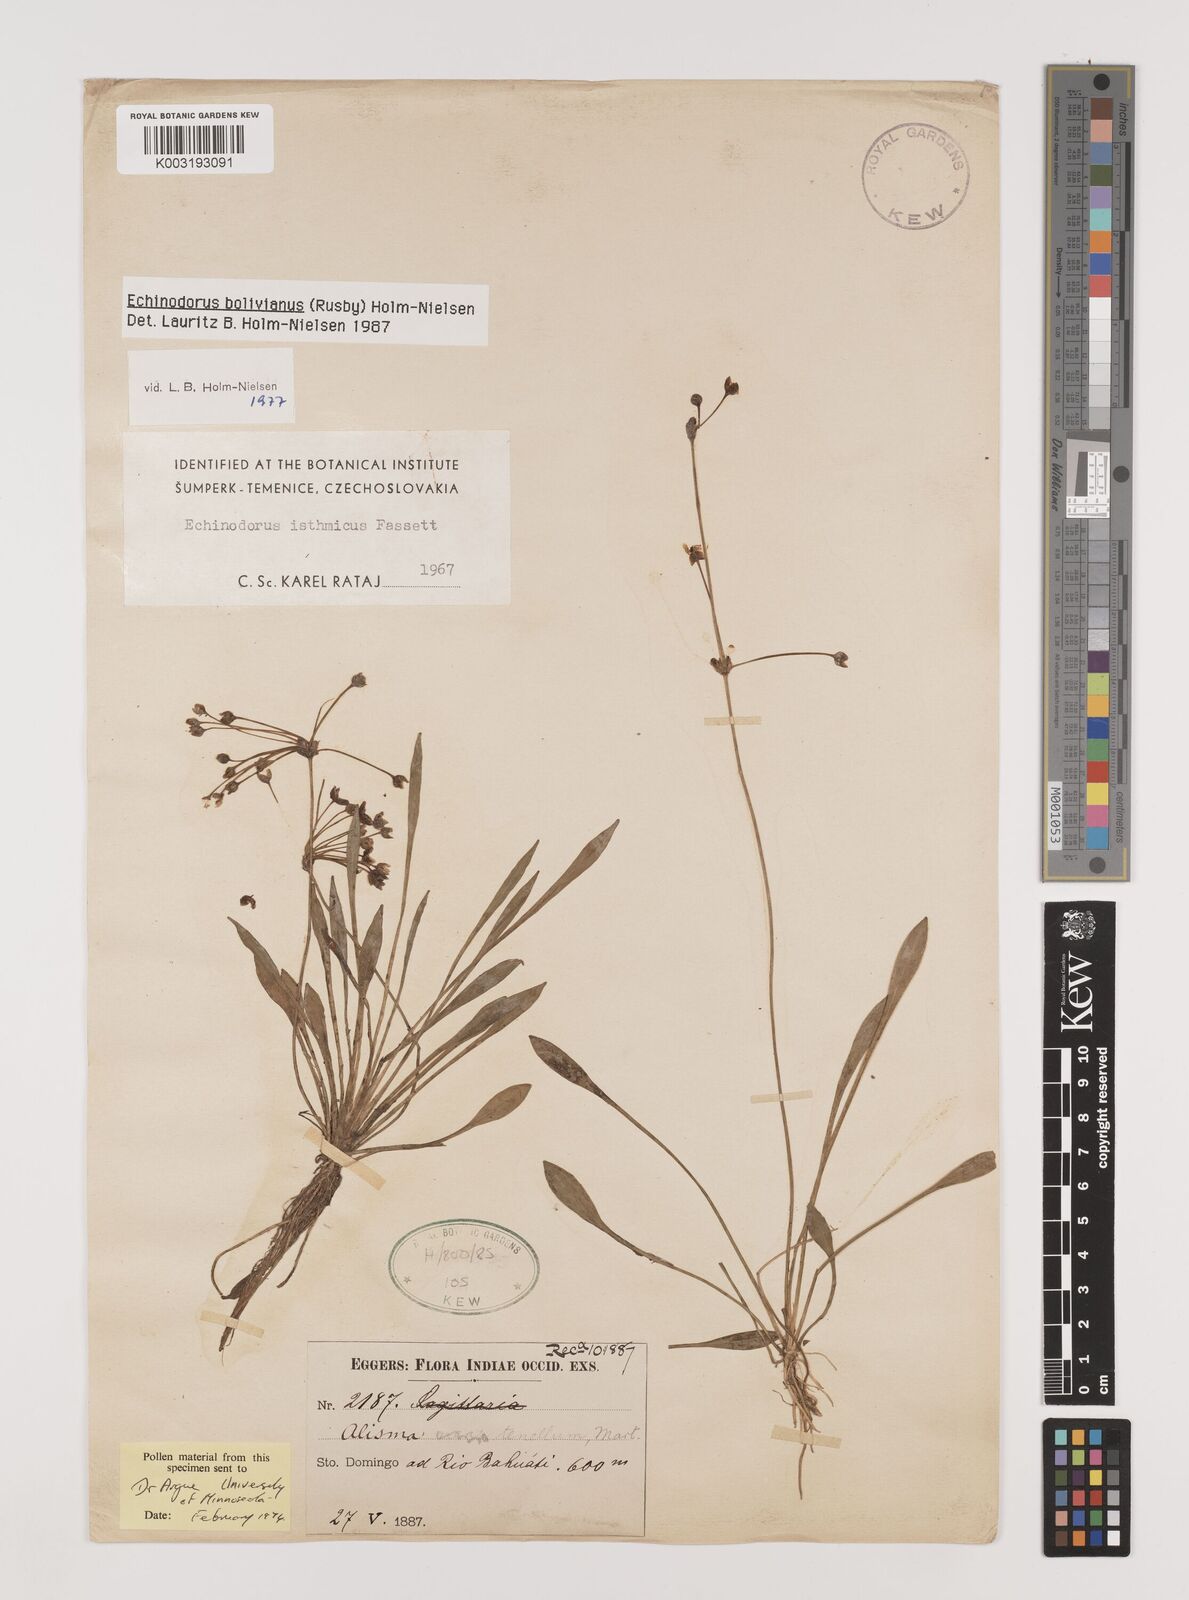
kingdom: Plantae
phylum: Tracheophyta
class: Liliopsida
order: Alismatales
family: Alismataceae
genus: Helanthium
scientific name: Helanthium bolivianum
